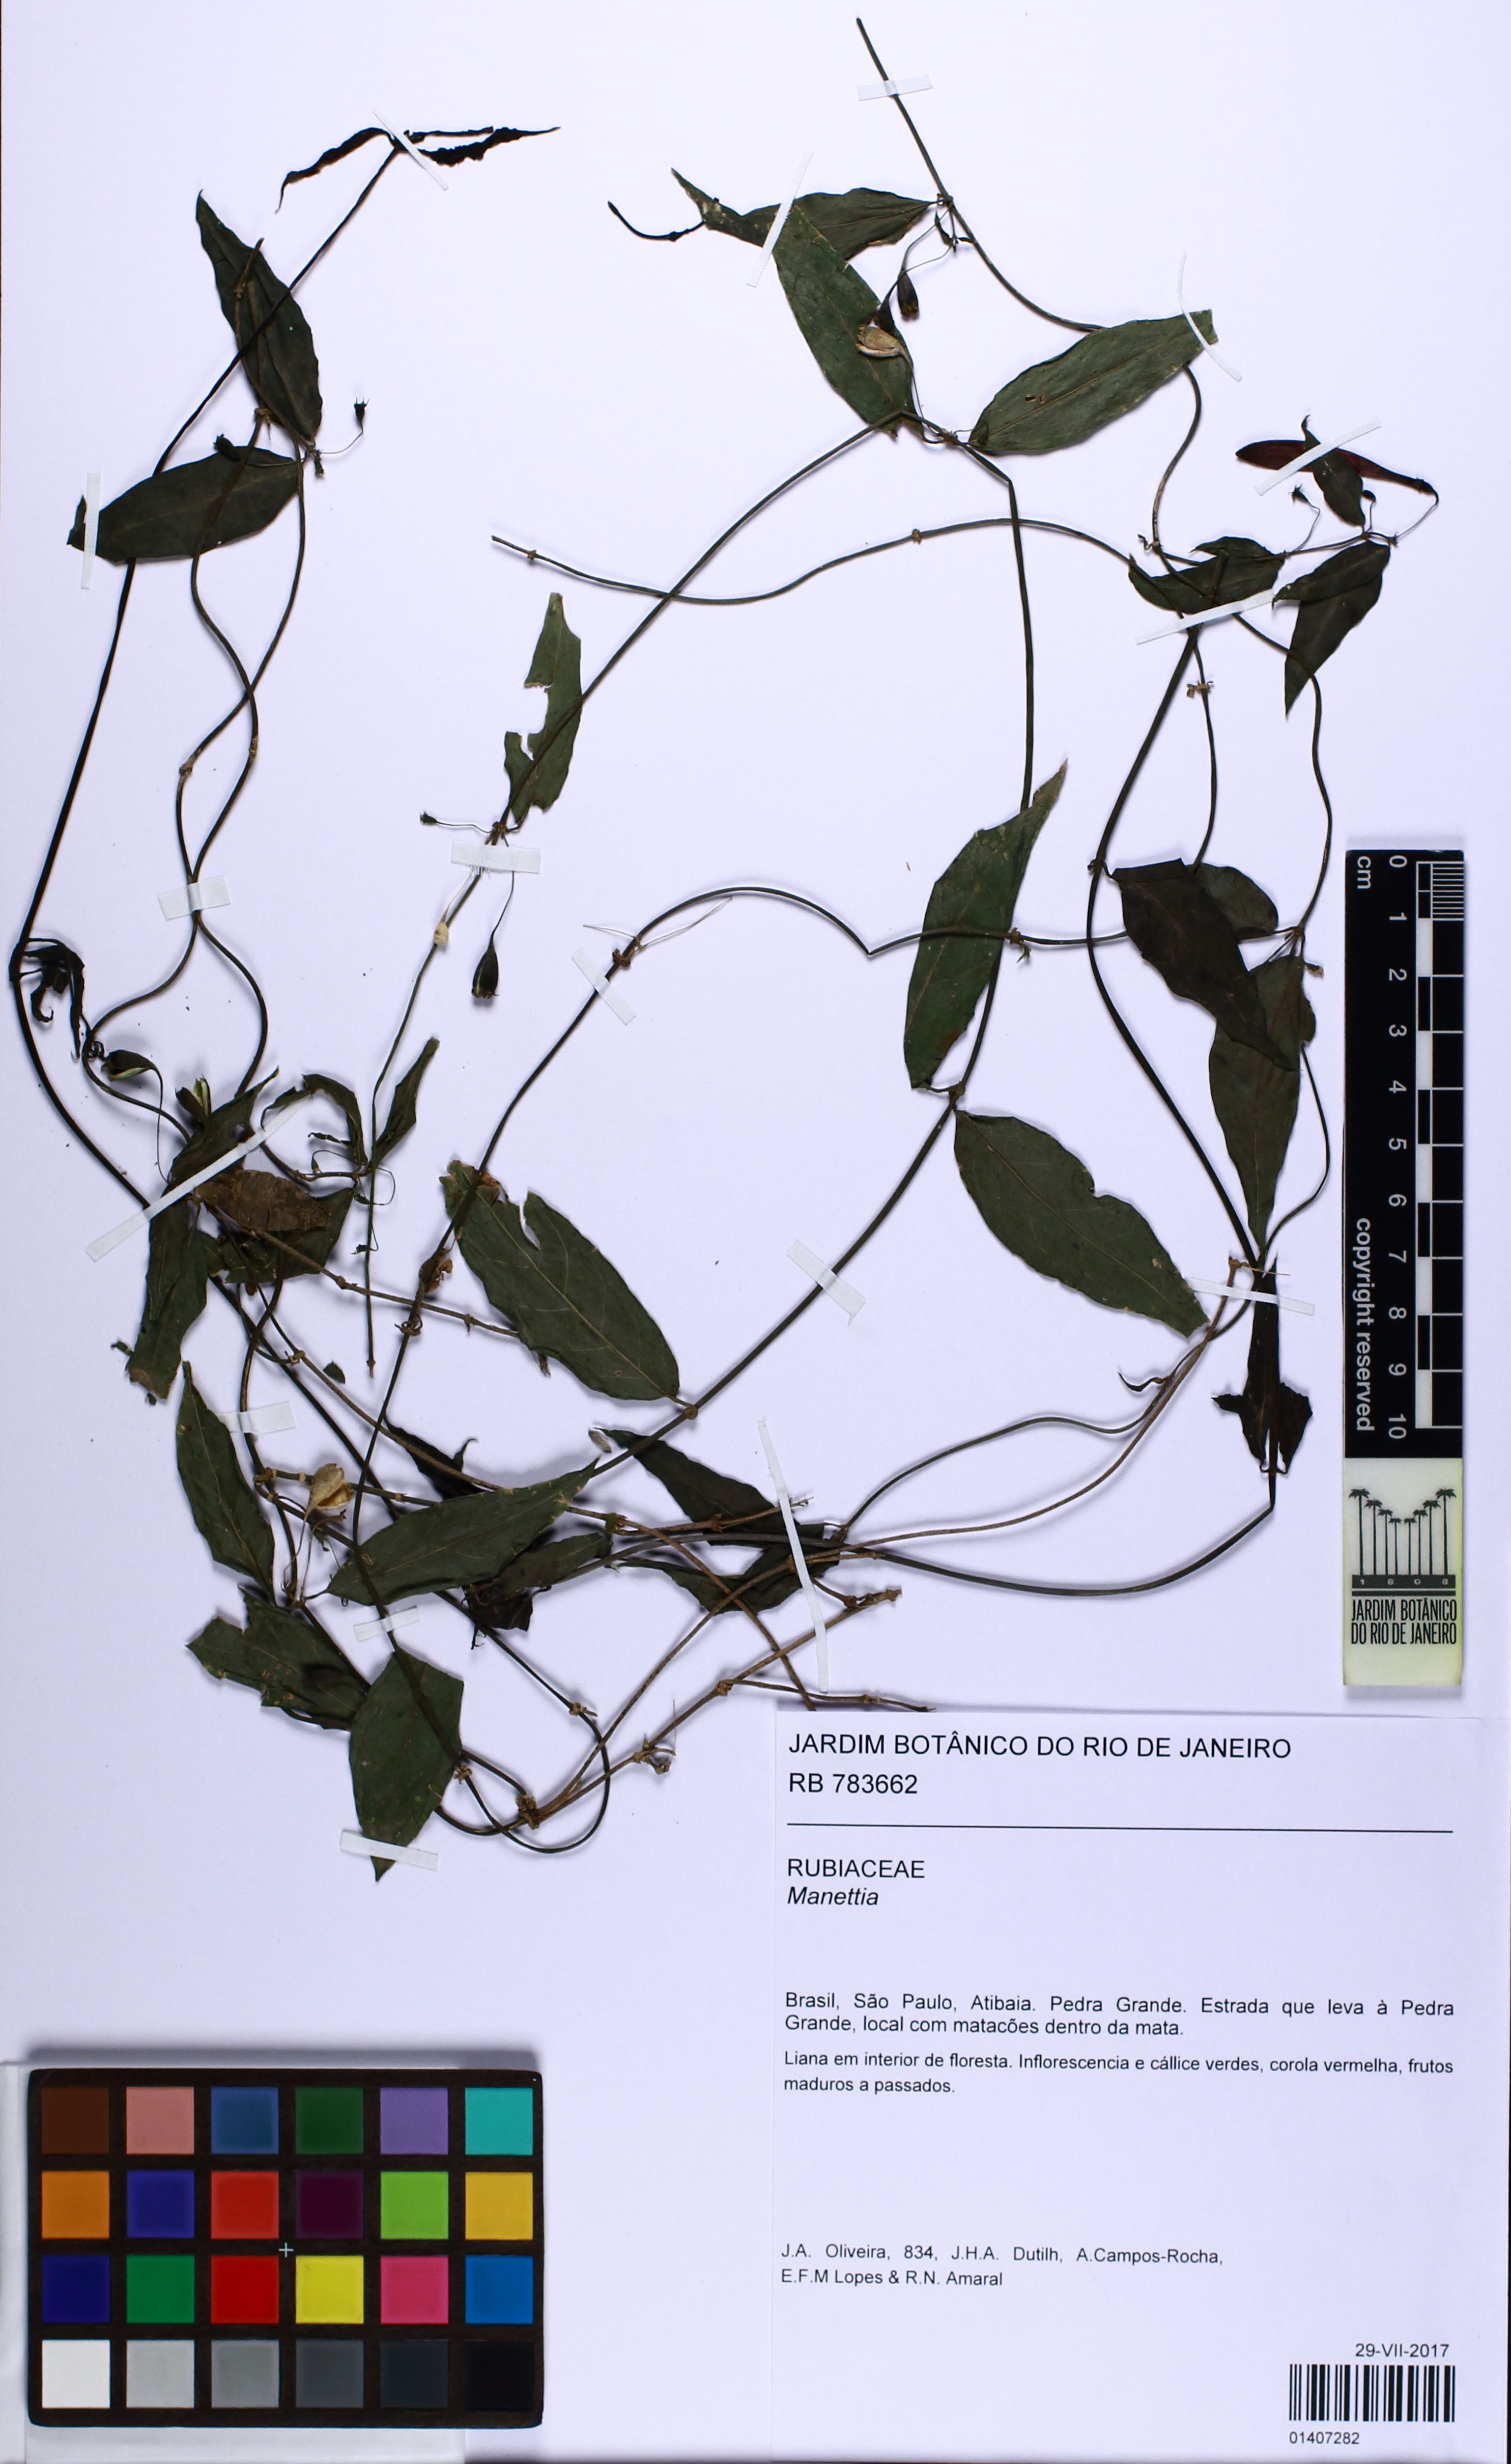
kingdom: Plantae
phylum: Tracheophyta
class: Magnoliopsida
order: Gentianales
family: Rubiaceae
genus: Manettia
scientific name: Manettia
